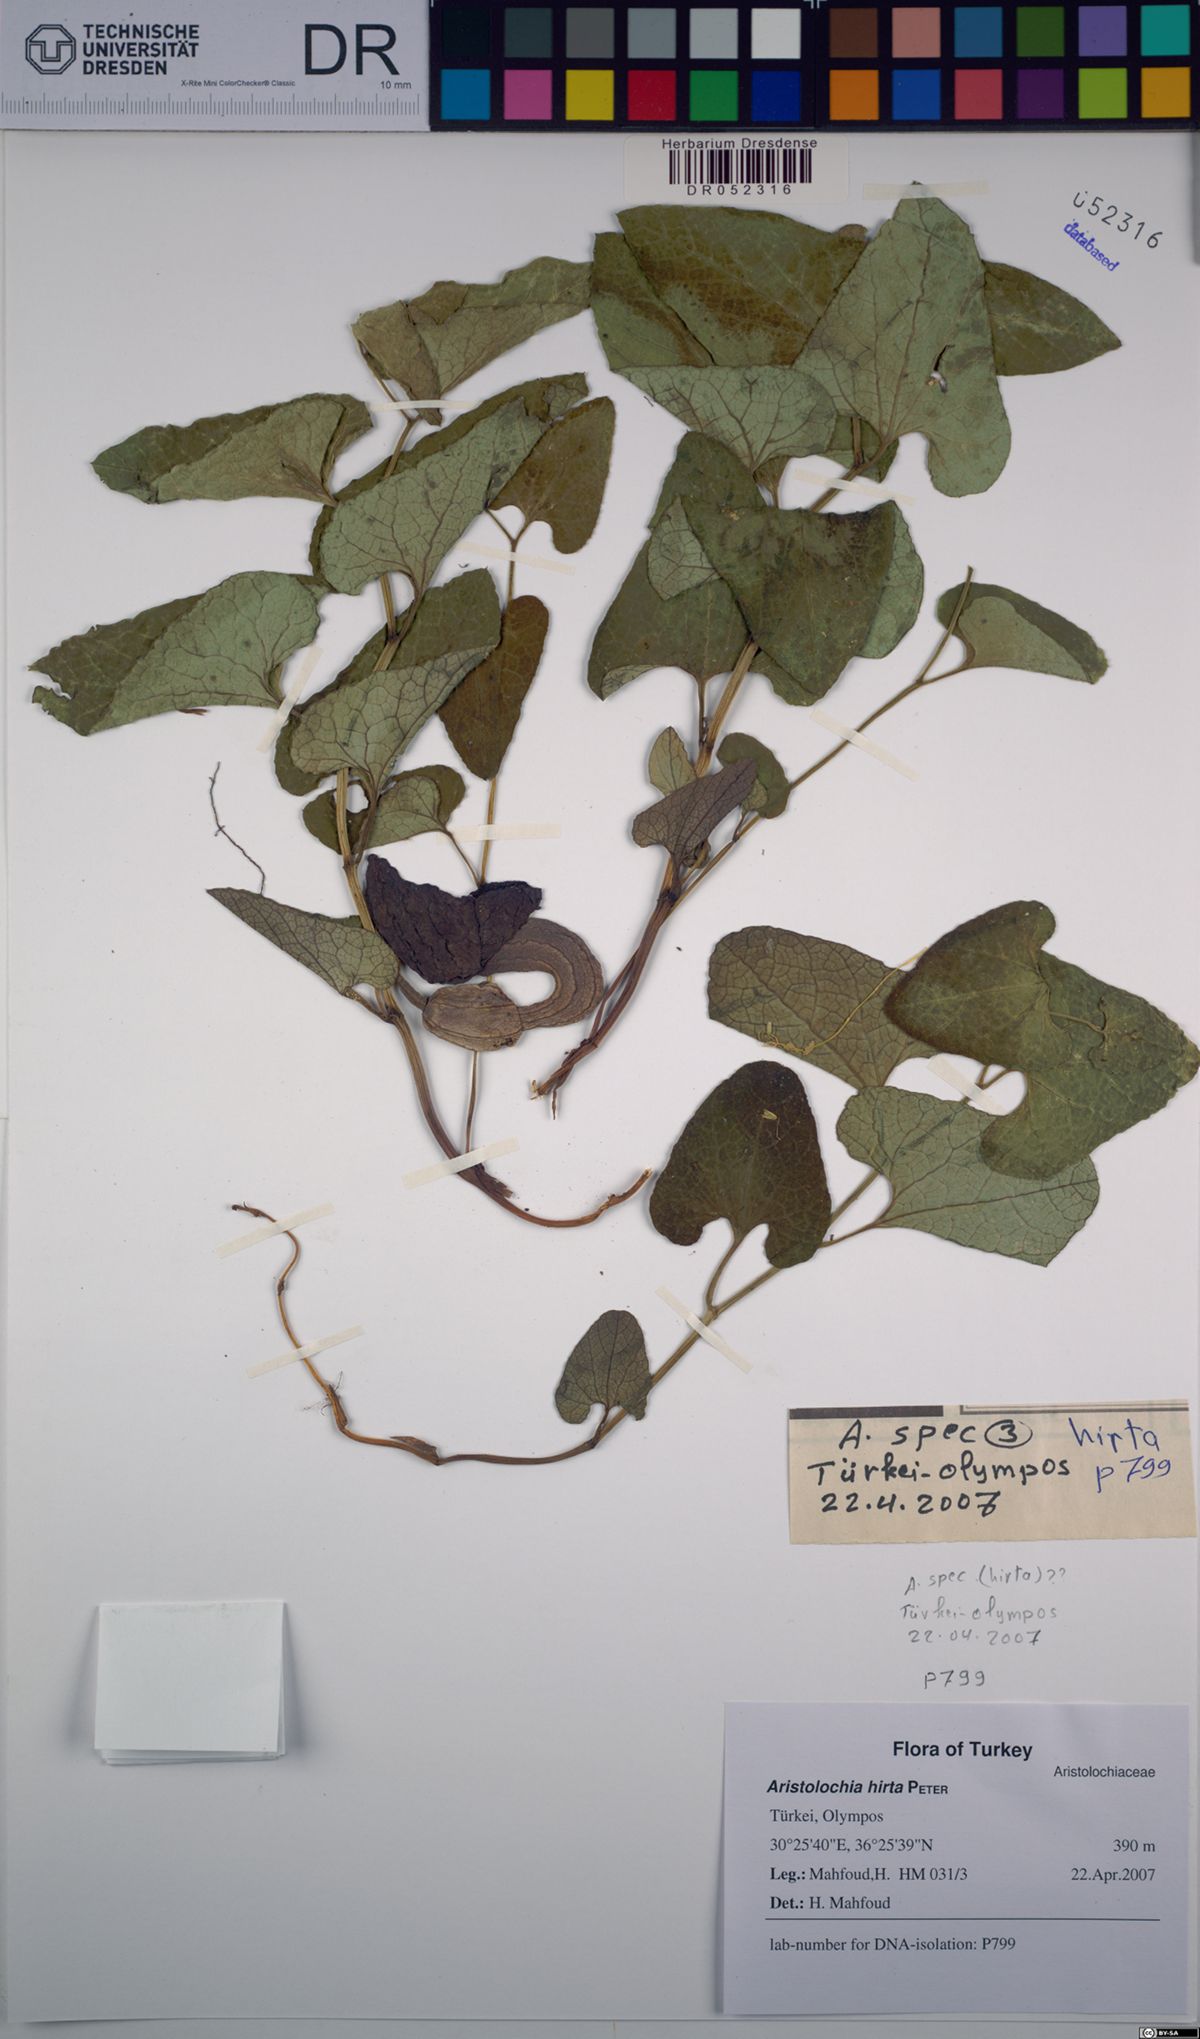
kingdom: Plantae
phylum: Tracheophyta
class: Magnoliopsida
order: Piperales
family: Aristolochiaceae
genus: Aristolochia
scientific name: Aristolochia hockii
